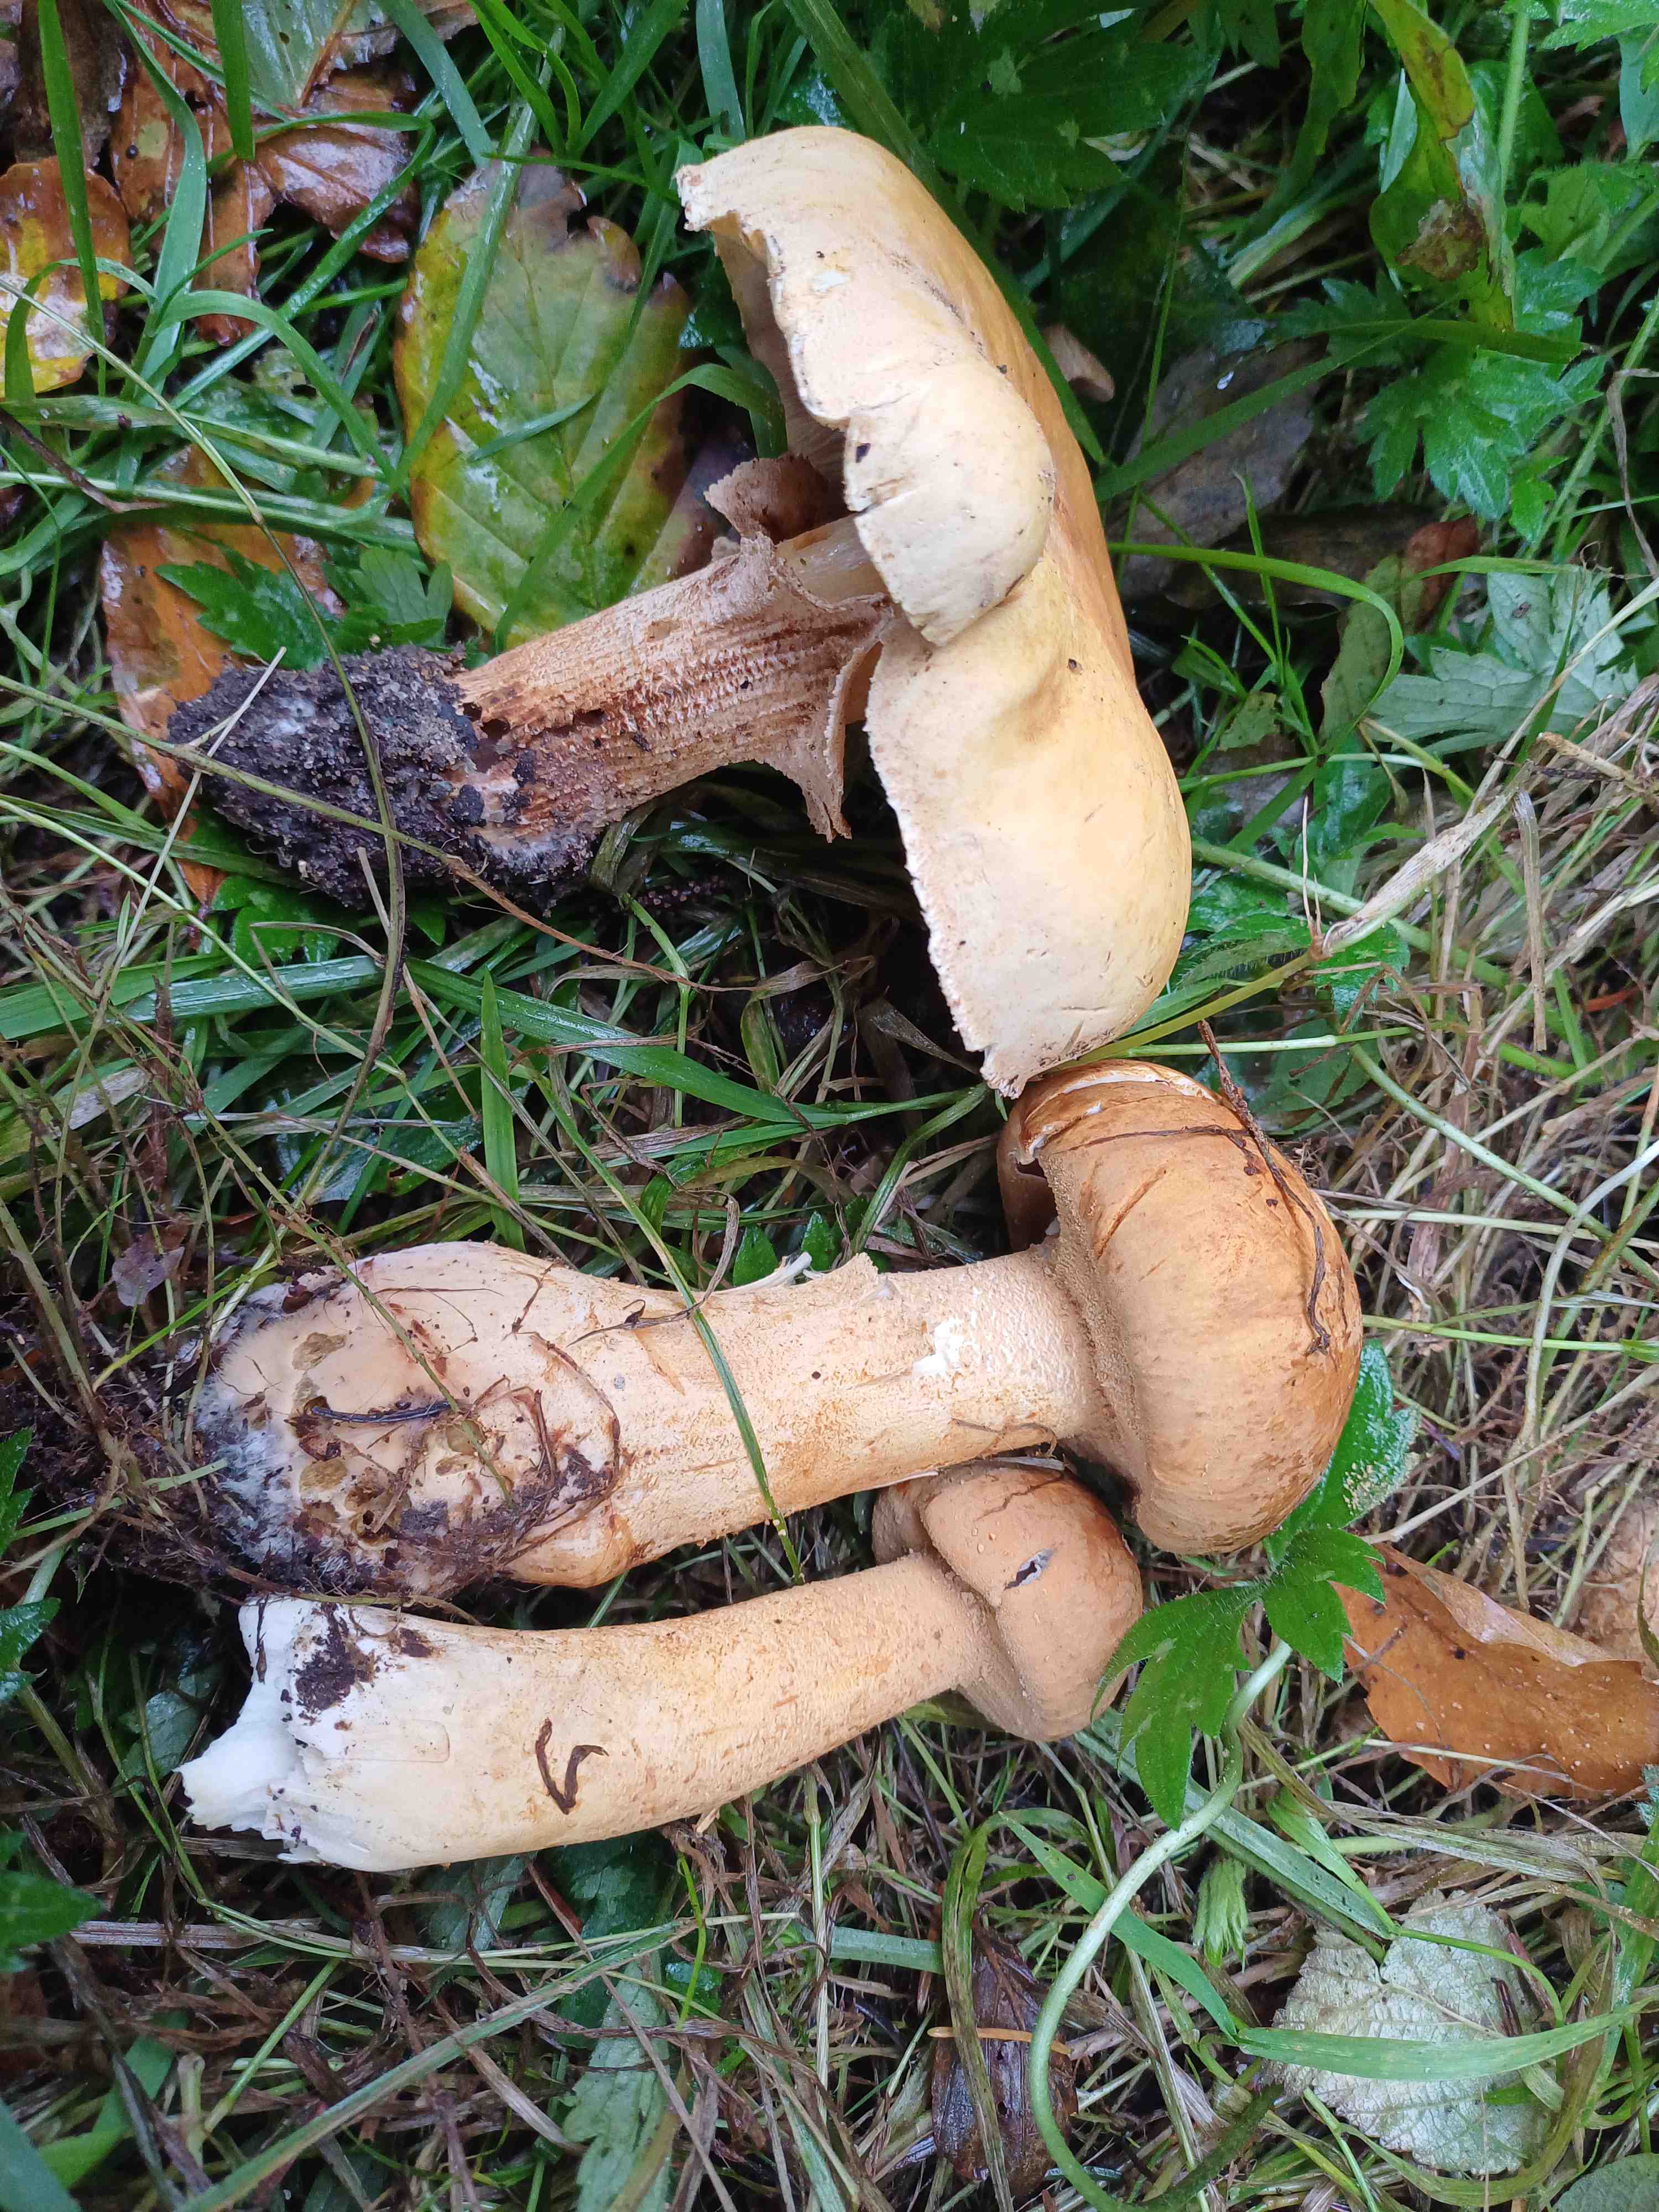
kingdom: Fungi
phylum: Basidiomycota
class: Agaricomycetes
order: Agaricales
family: Tricholomataceae
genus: Phaeolepiota
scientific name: Phaeolepiota aurea
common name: gyldenhat
